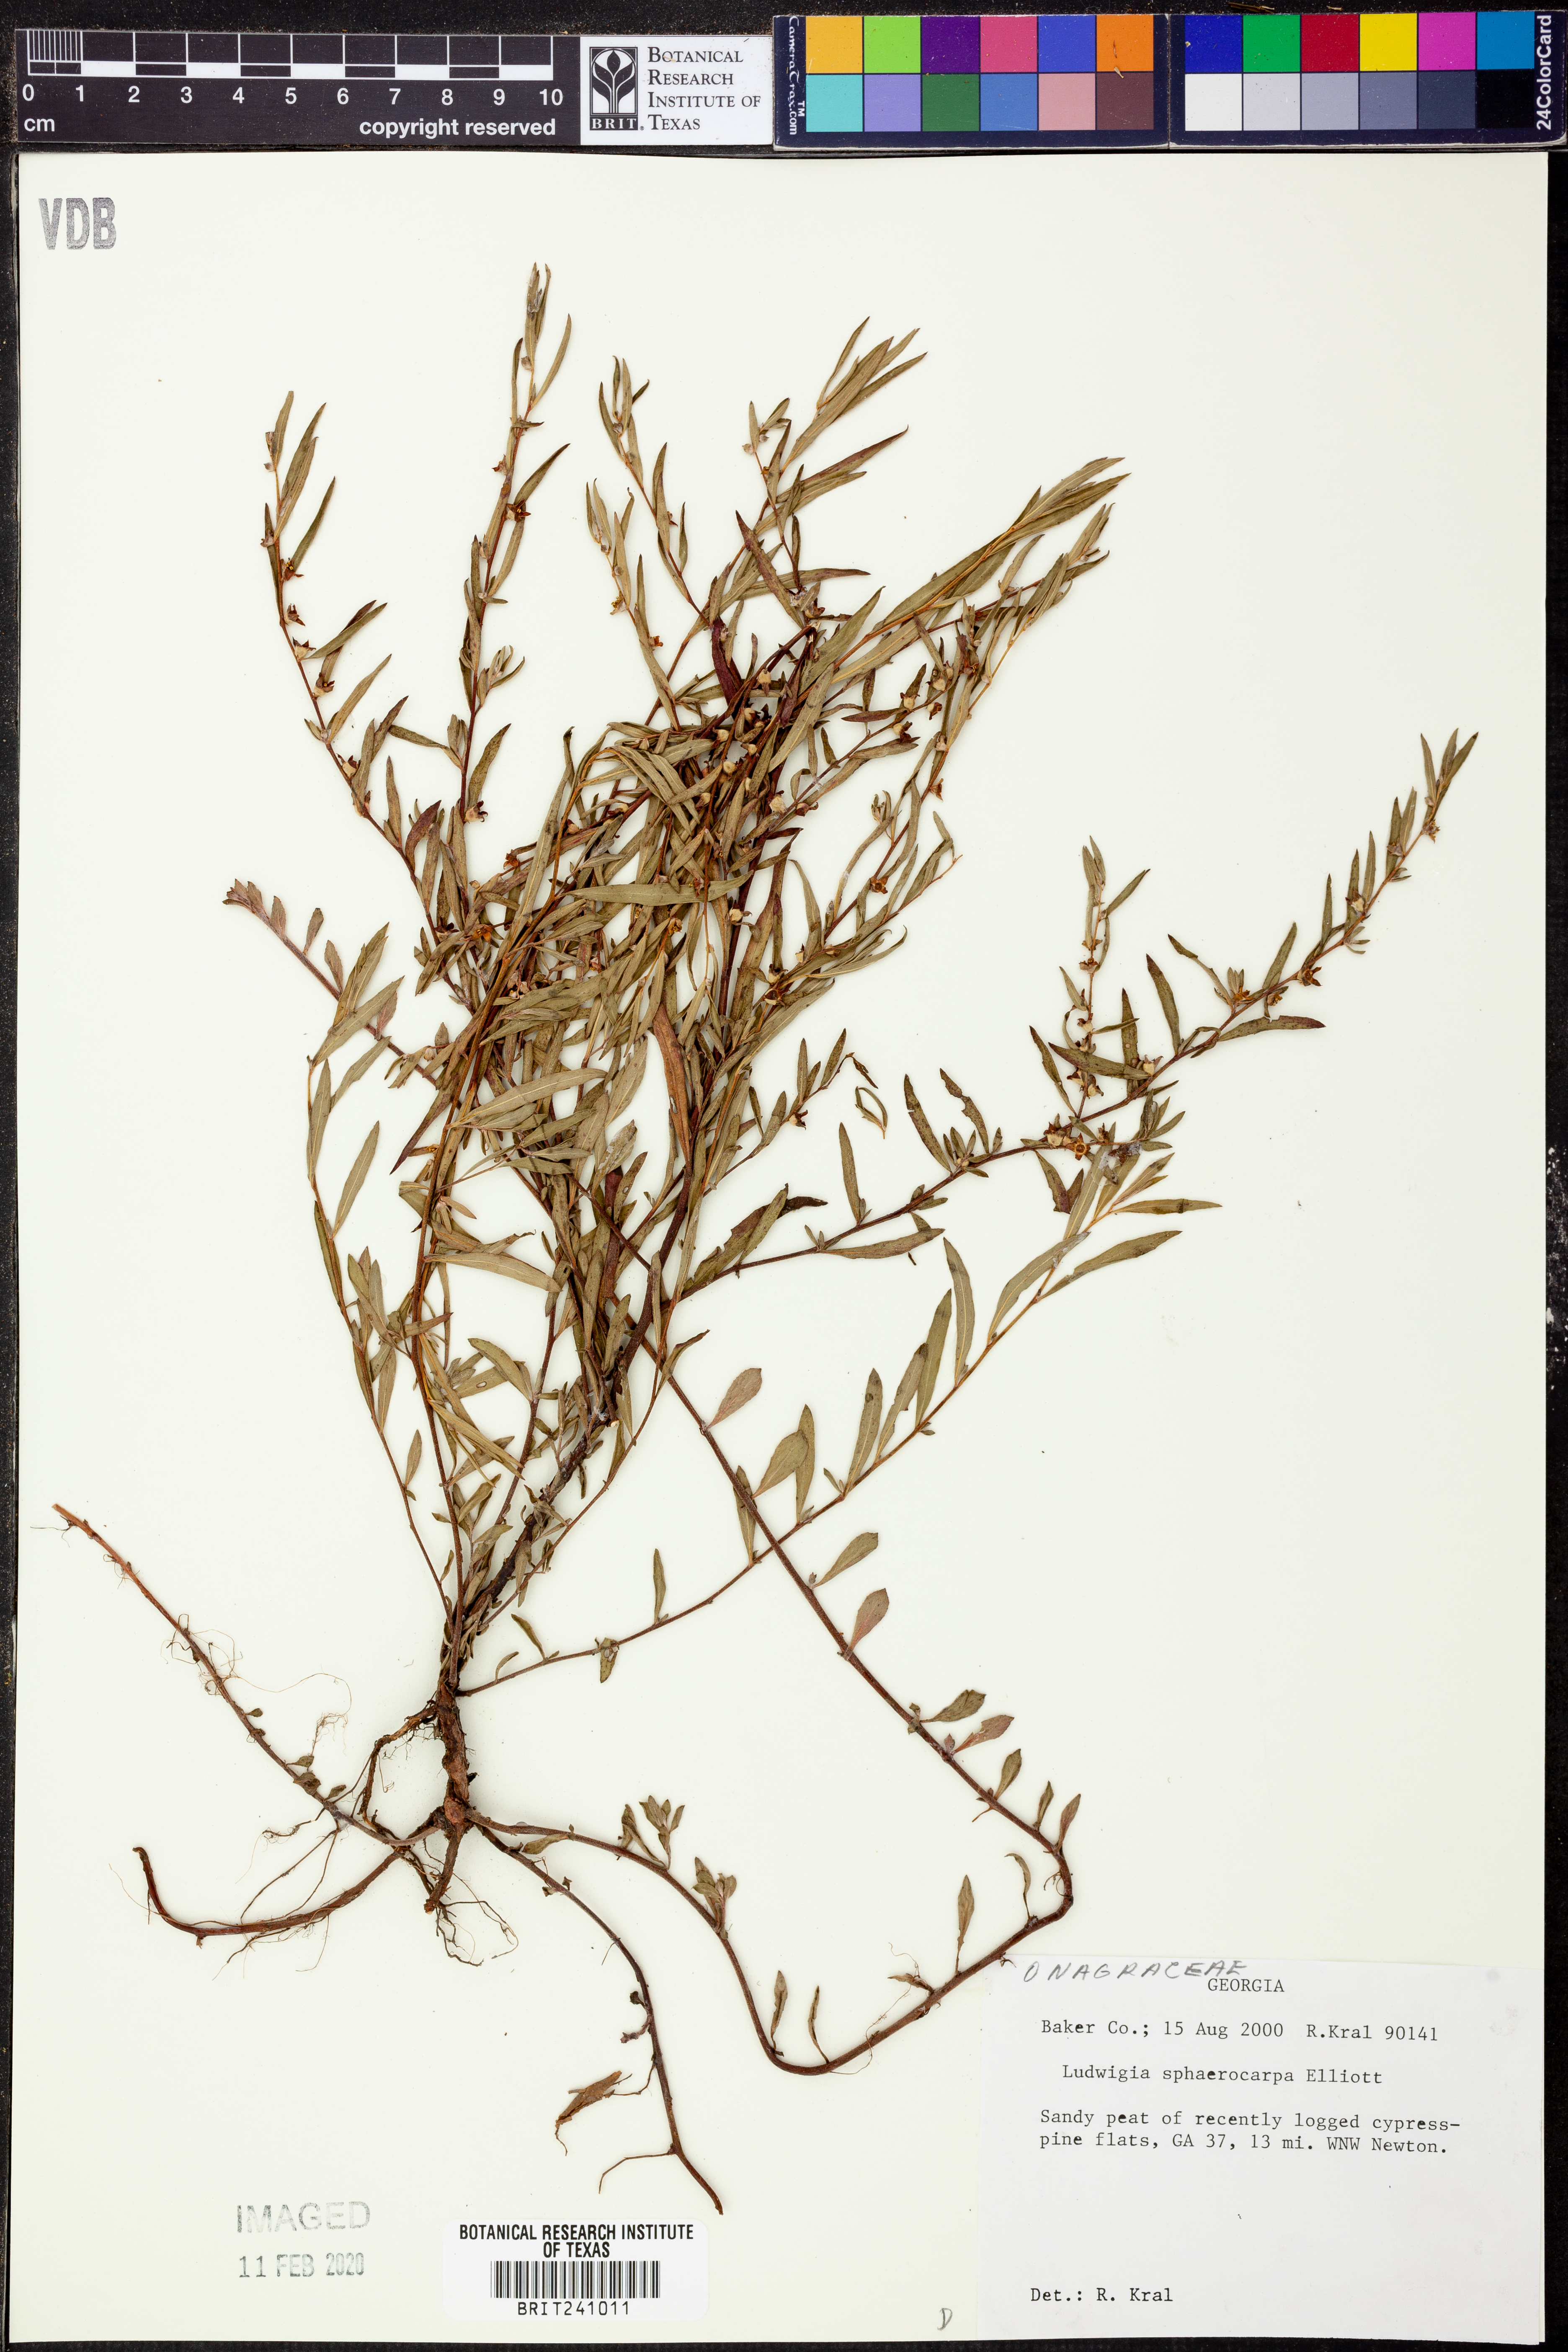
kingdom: Plantae
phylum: Tracheophyta
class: Magnoliopsida
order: Myrtales
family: Onagraceae
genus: Ludwigia
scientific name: Ludwigia sphaerocarpa
